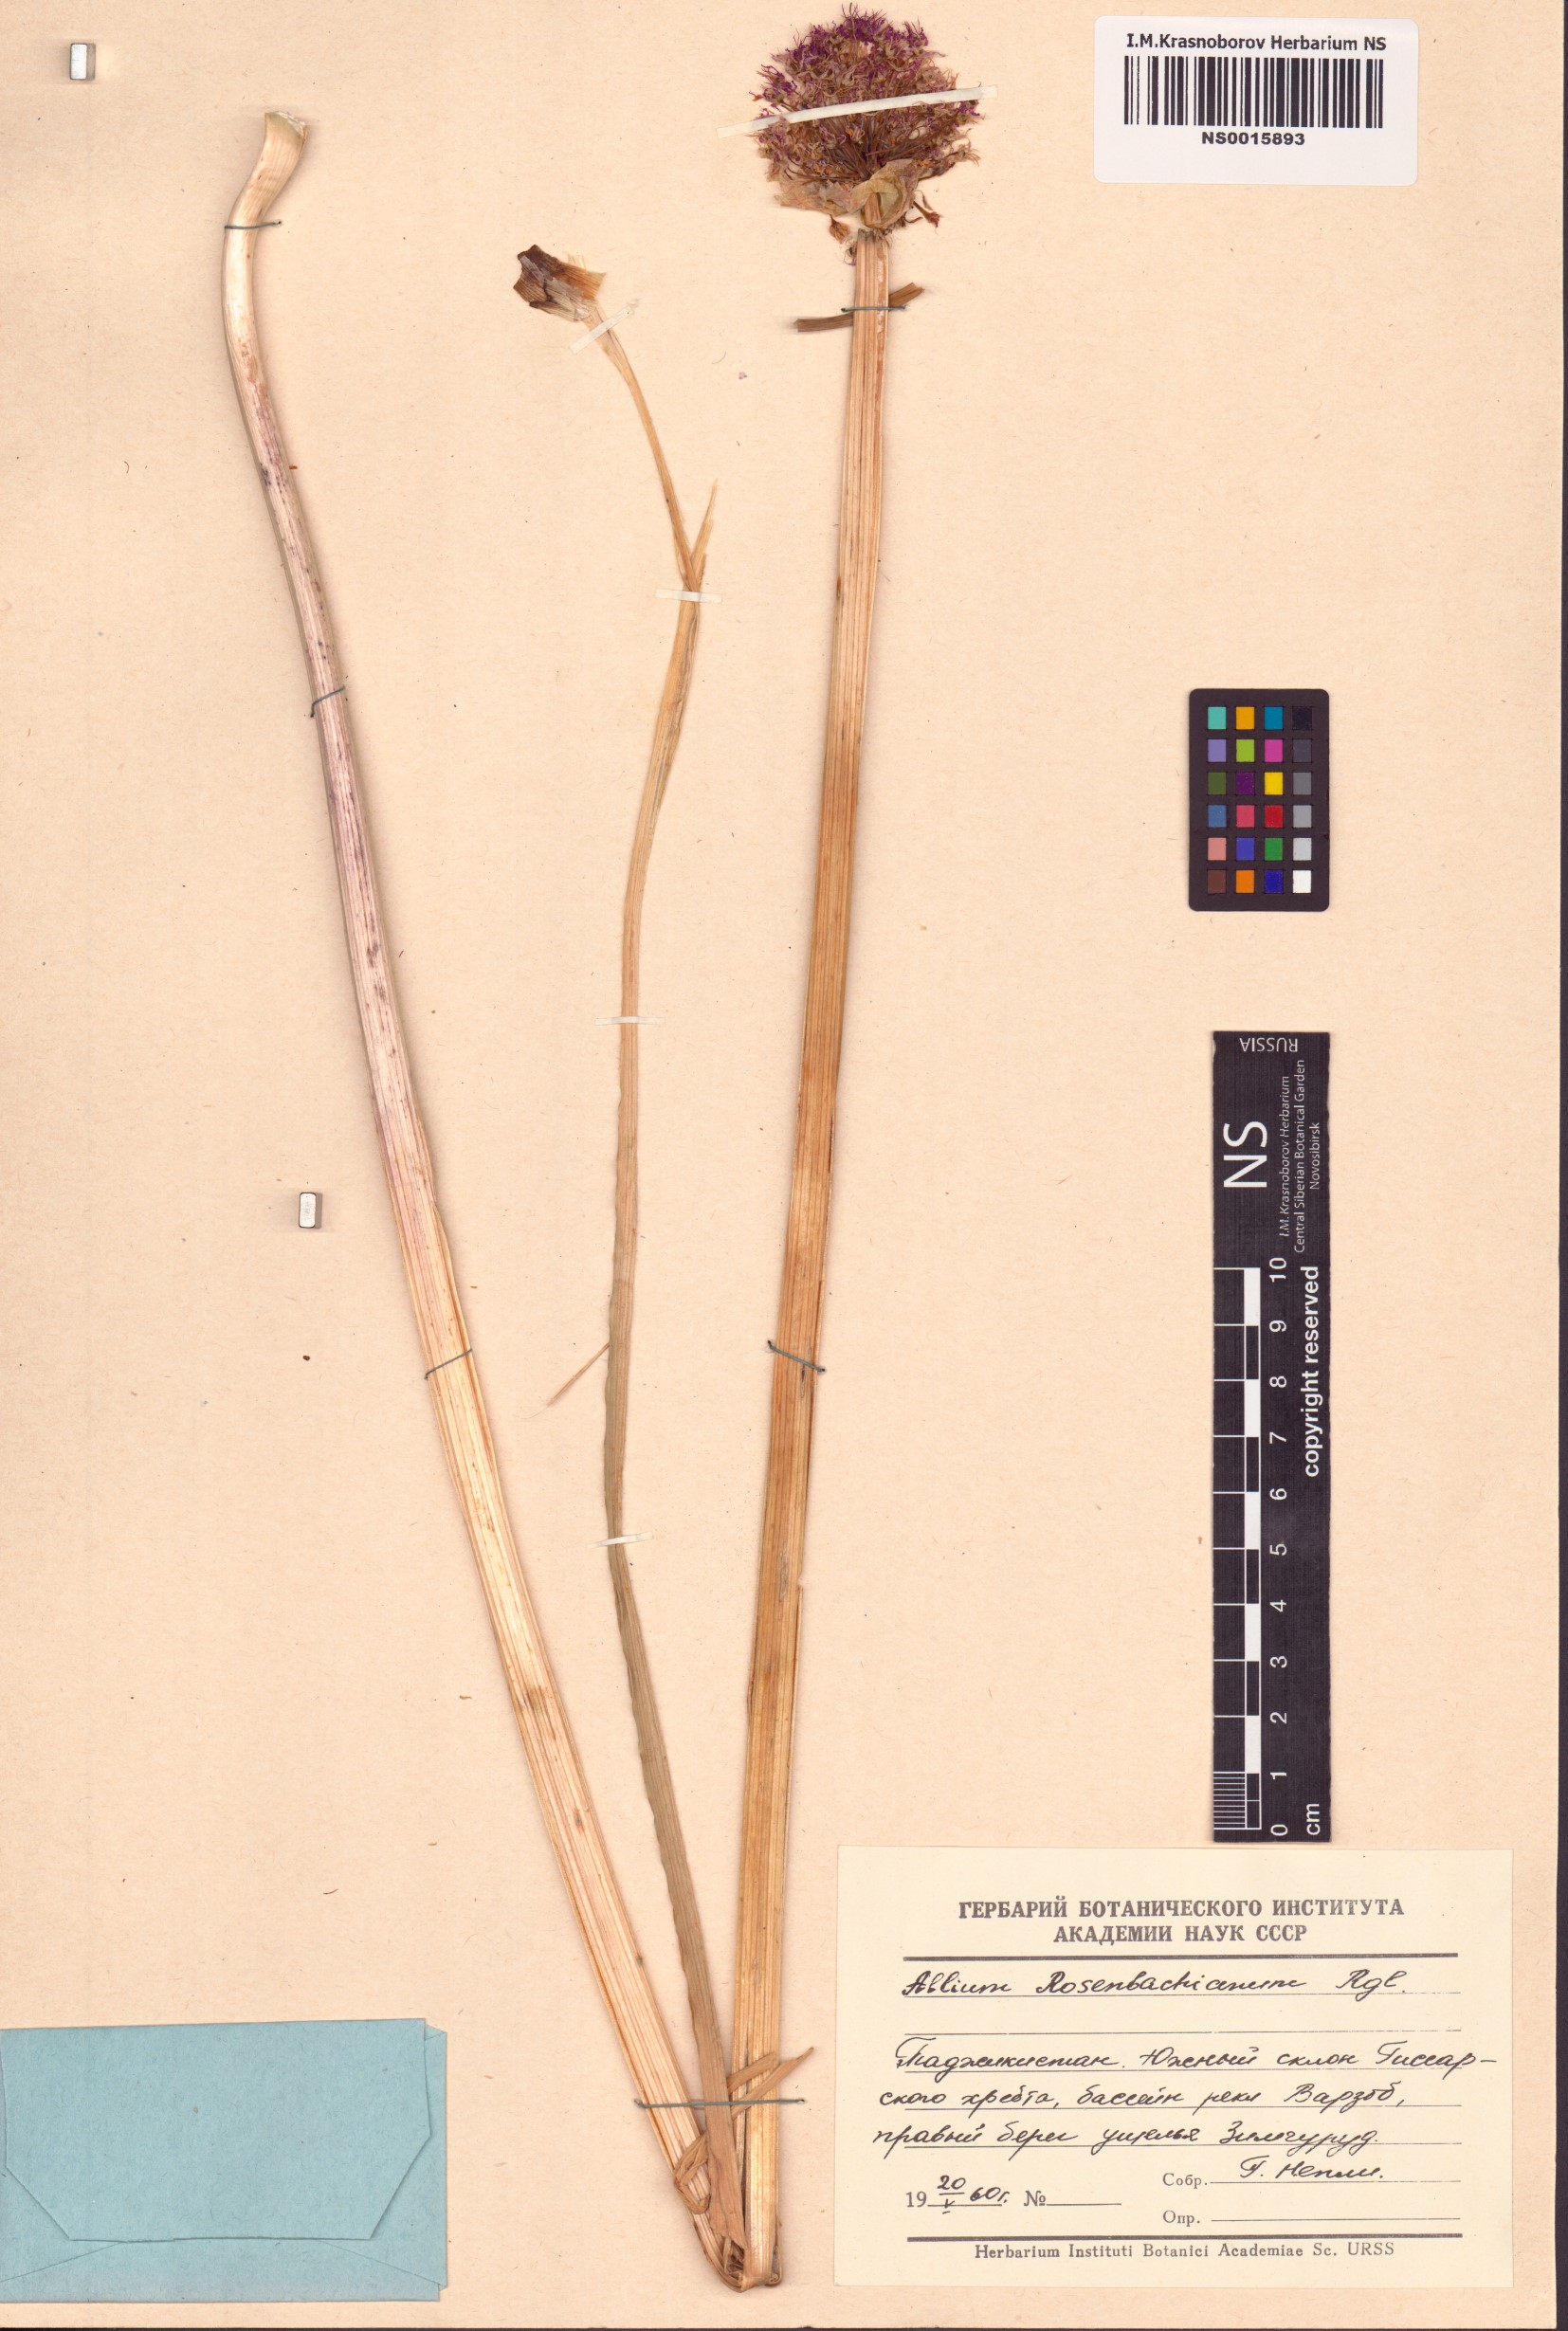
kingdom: Plantae
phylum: Tracheophyta
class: Liliopsida
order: Asparagales
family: Amaryllidaceae
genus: Allium
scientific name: Allium rosenbachianum
